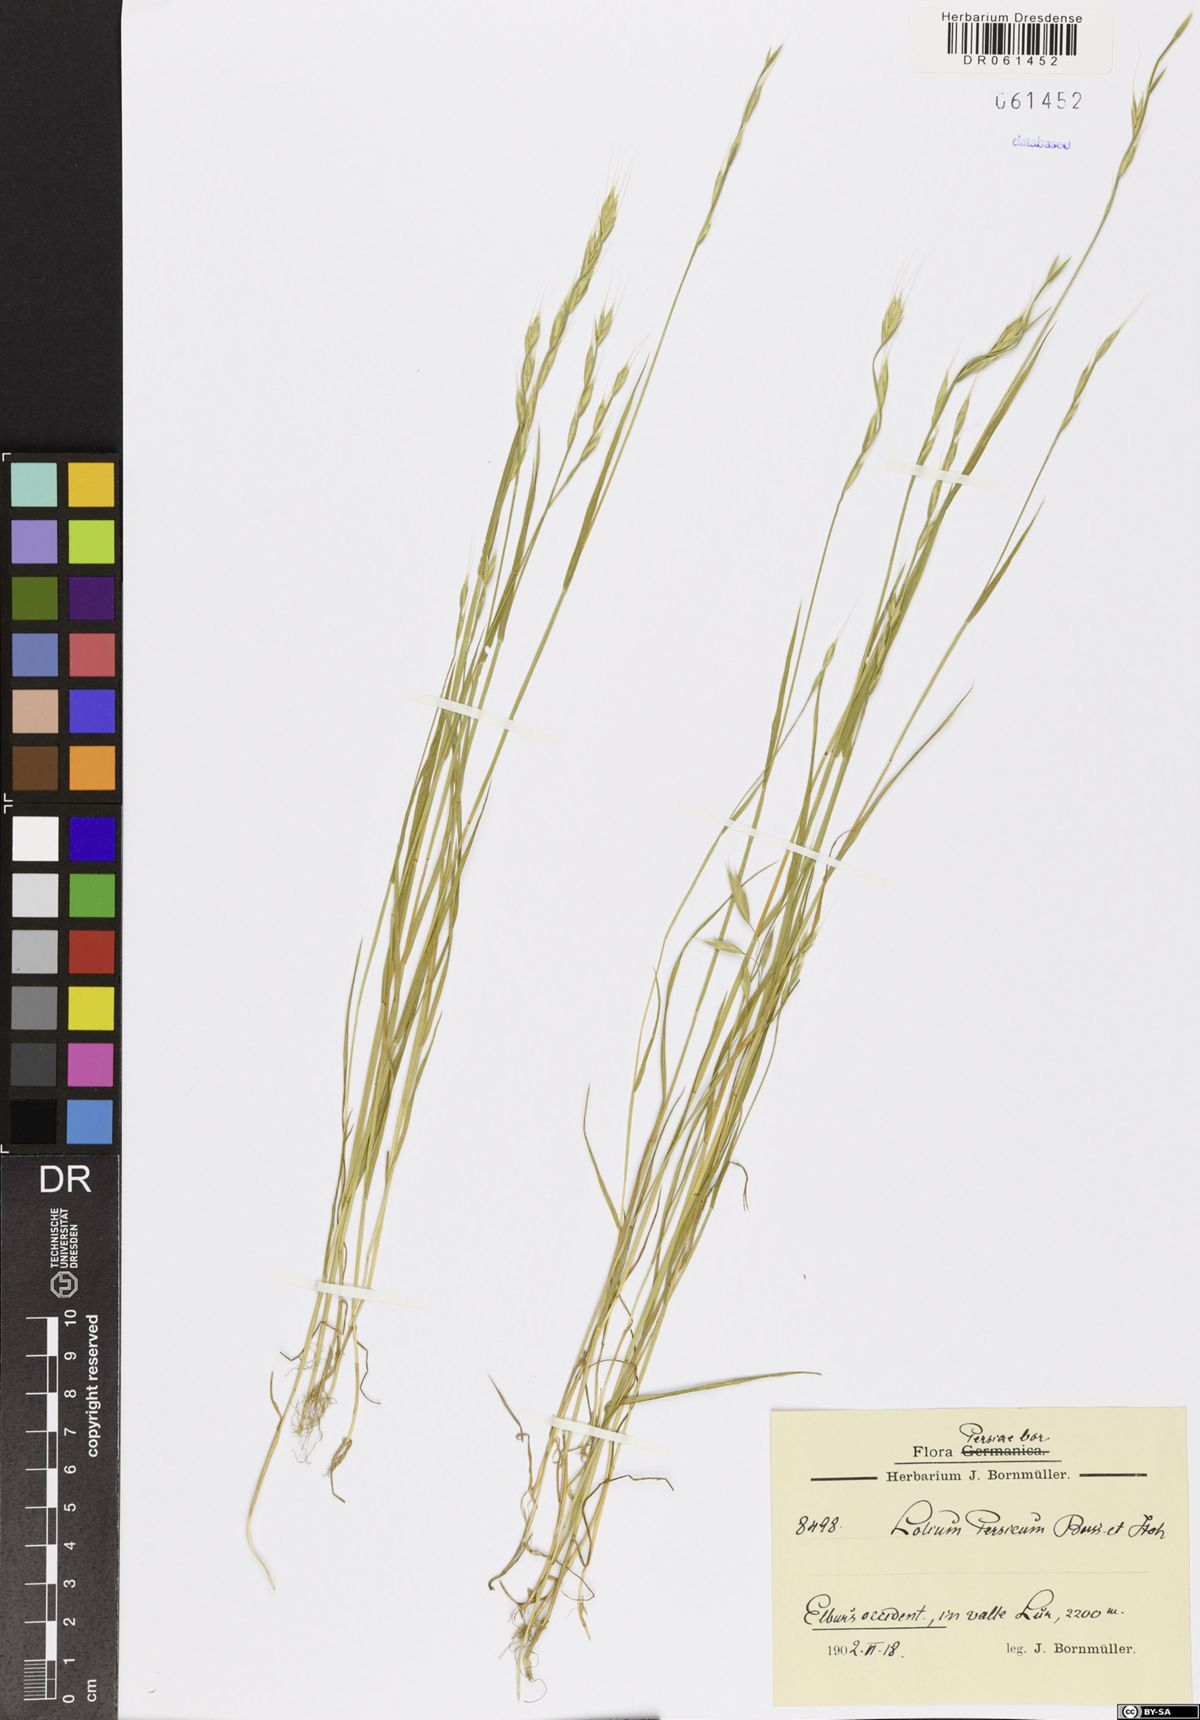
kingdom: Plantae
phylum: Tracheophyta
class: Liliopsida
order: Poales
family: Poaceae
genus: Lolium
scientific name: Lolium persicum
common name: Persian ryegrass
